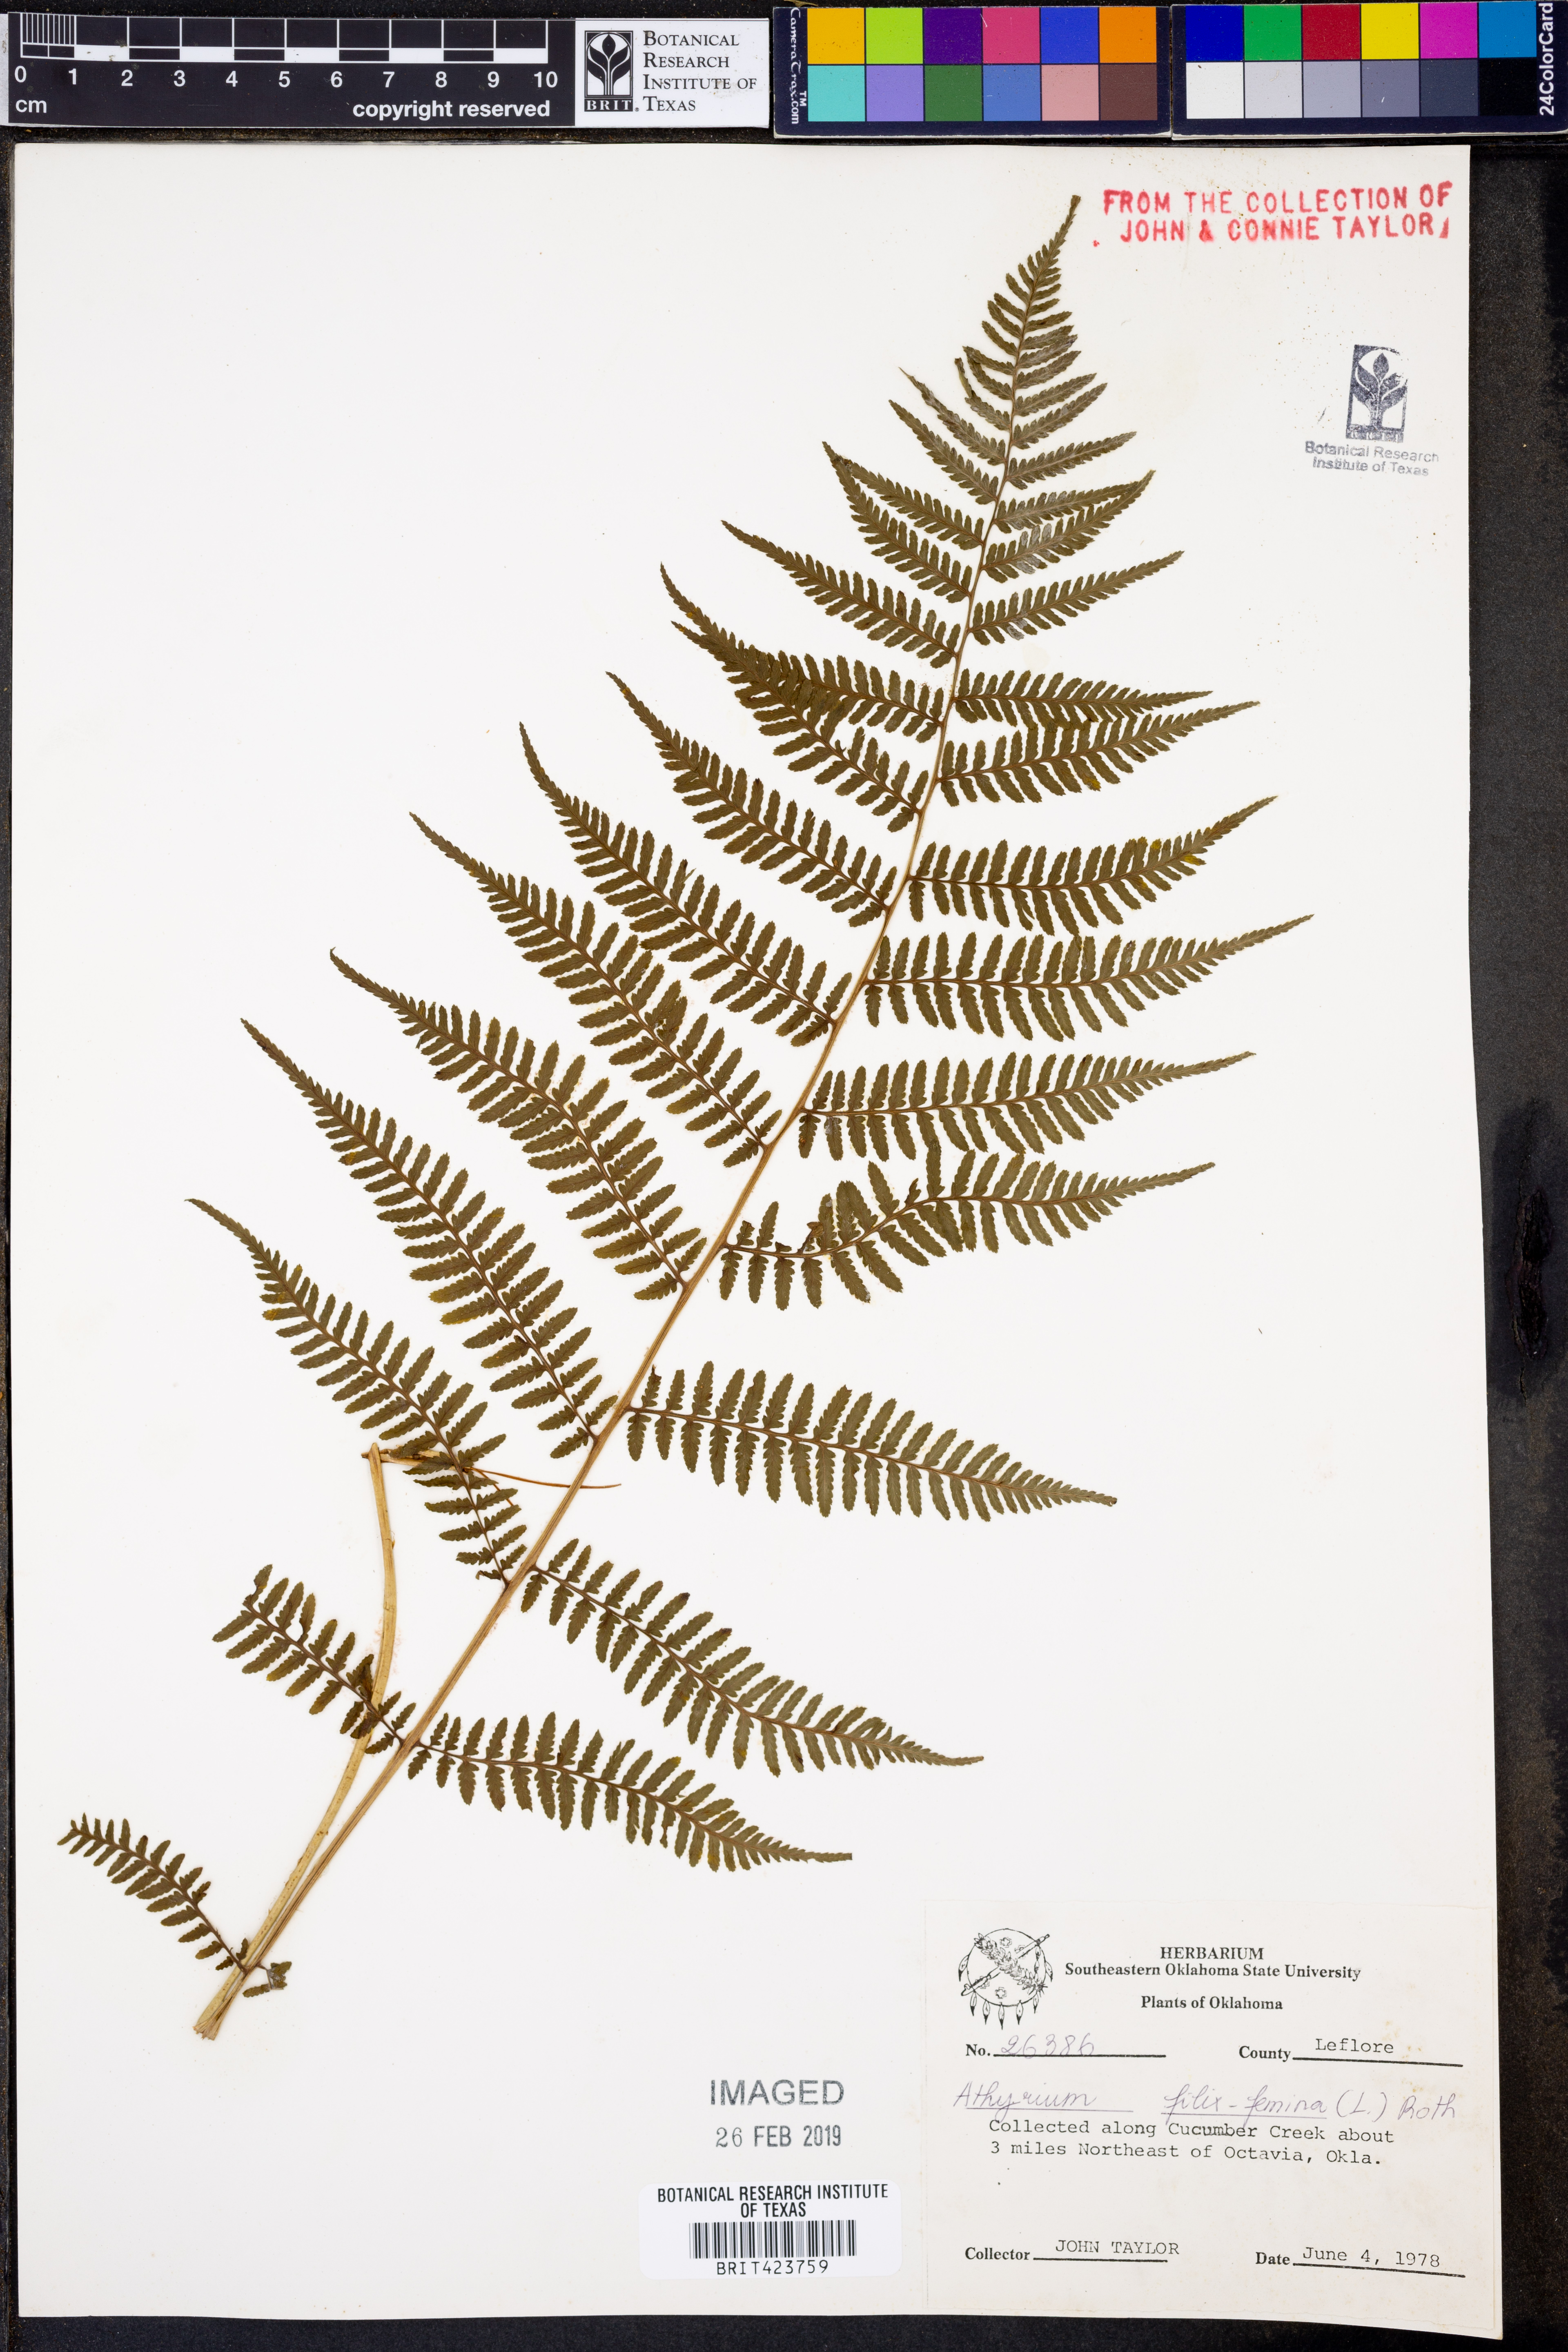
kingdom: Plantae
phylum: Tracheophyta
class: Polypodiopsida
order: Polypodiales
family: Athyriaceae
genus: Athyrium
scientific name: Athyrium filix-femina
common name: Lady fern
